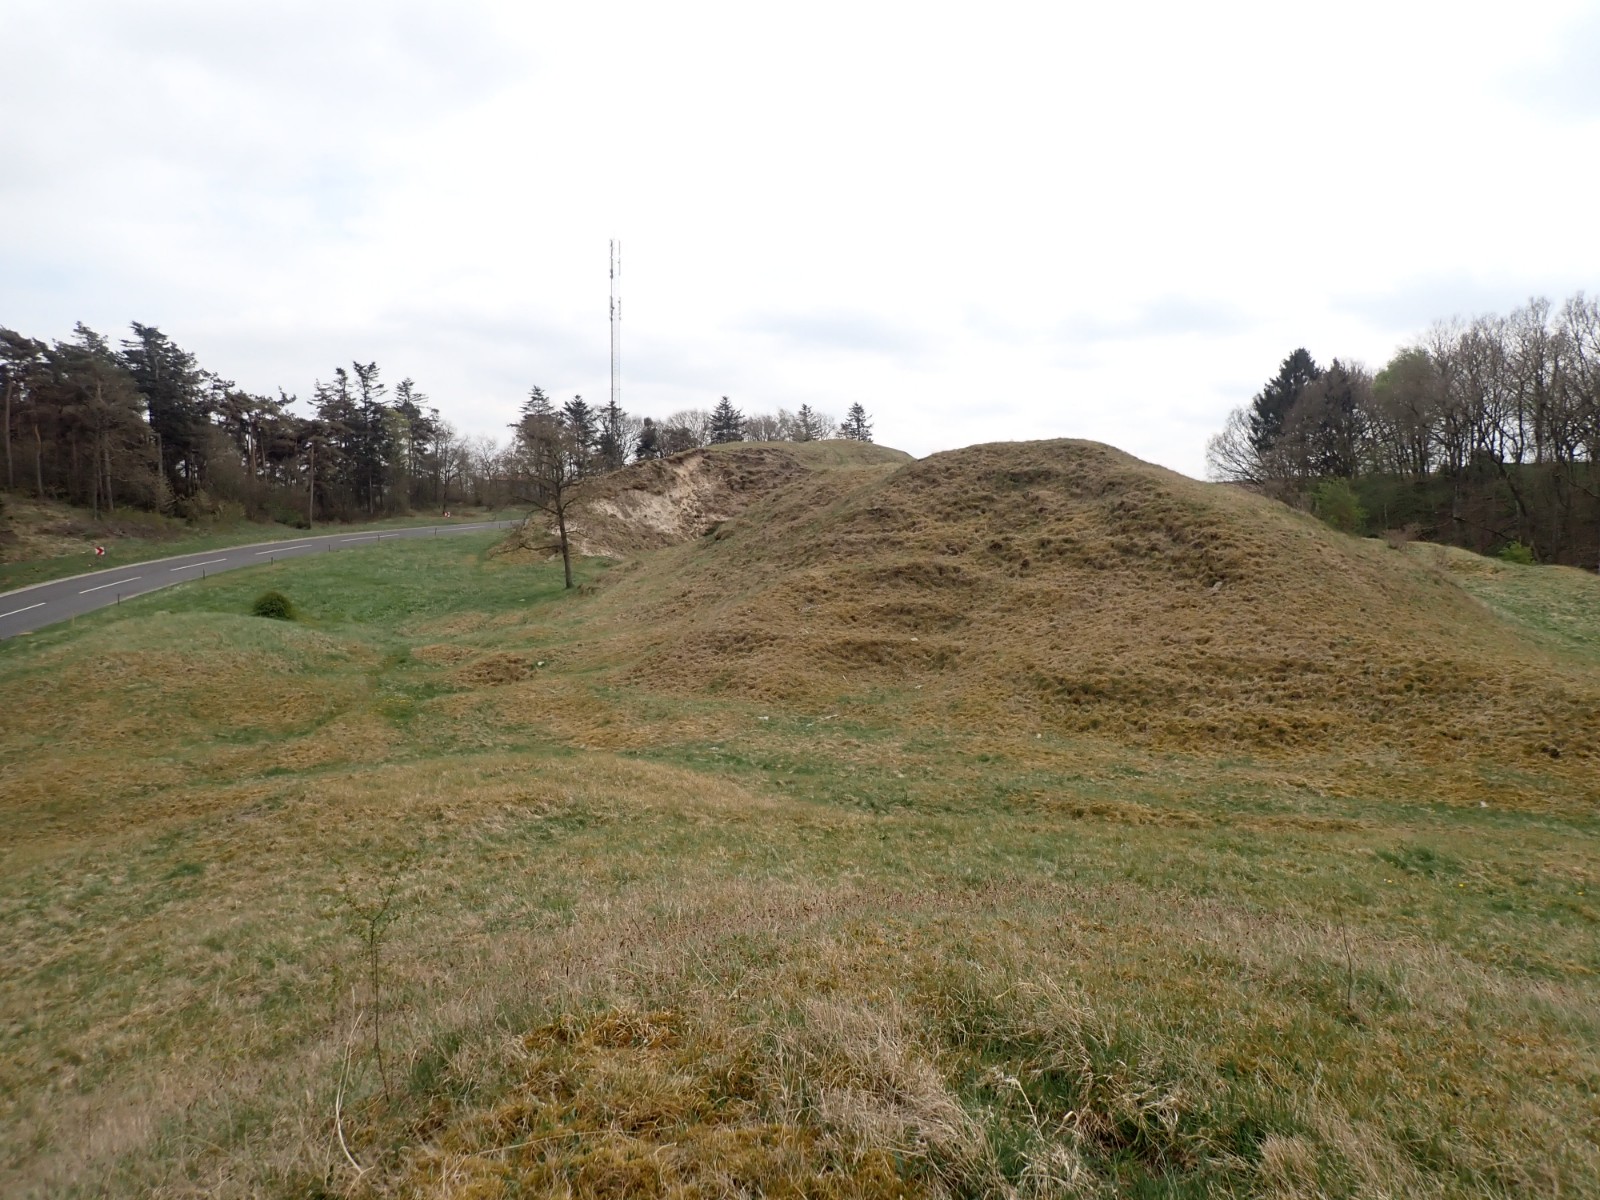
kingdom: Fungi
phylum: Basidiomycota
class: Pucciniomycetes
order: Pucciniales
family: Gymnosporangiaceae
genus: Gymnosporangium
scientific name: Gymnosporangium clavariiforme
